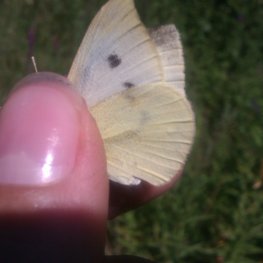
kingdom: Animalia
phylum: Arthropoda
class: Insecta
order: Lepidoptera
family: Pieridae
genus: Pieris
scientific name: Pieris rapae
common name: Cabbage White
